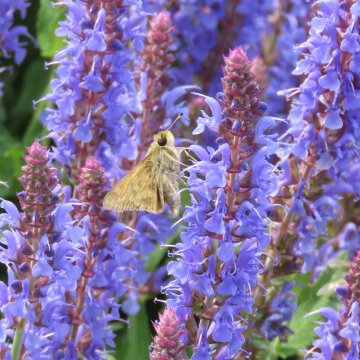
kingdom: Animalia
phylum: Arthropoda
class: Insecta
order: Lepidoptera
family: Hesperiidae
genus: Atalopedes
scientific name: Atalopedes campestris
